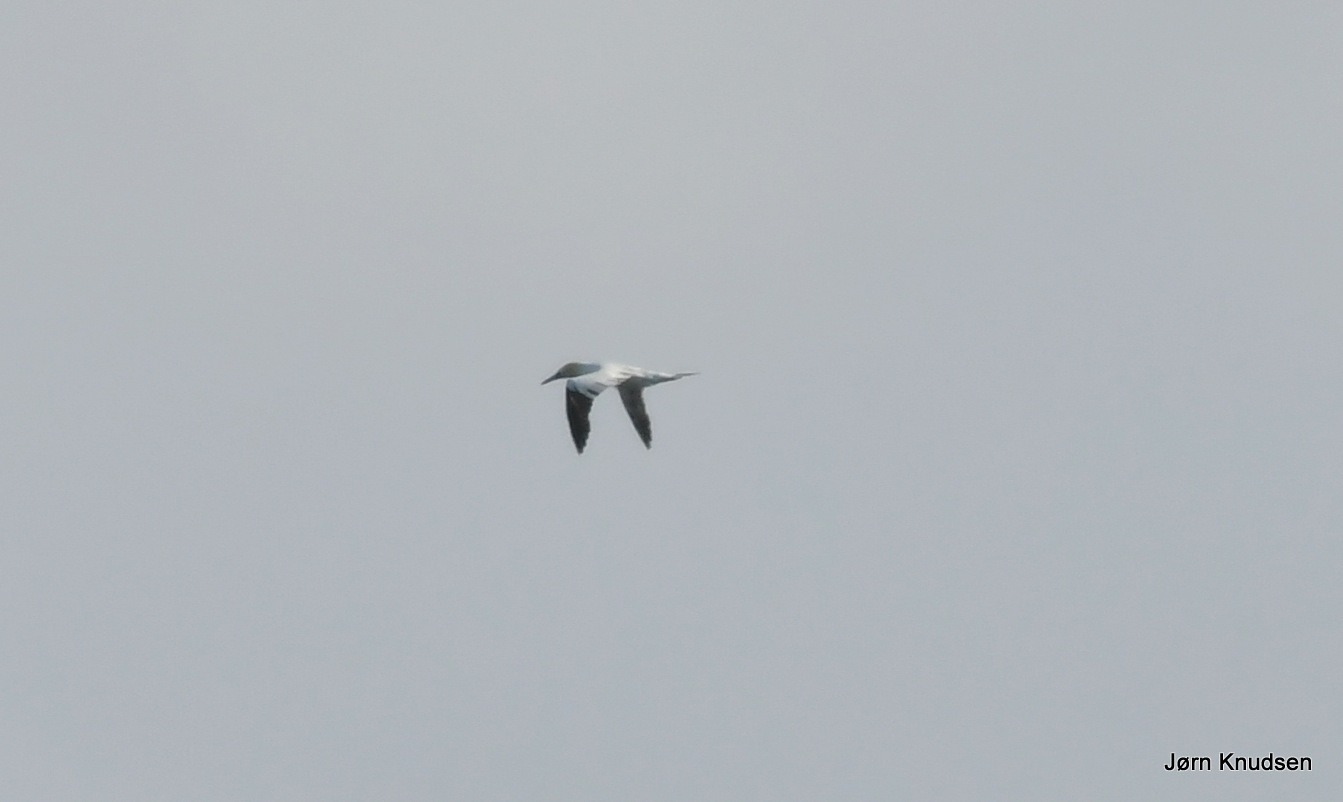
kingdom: Animalia
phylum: Chordata
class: Aves
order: Suliformes
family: Sulidae
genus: Morus
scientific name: Morus bassanus
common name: Sule
